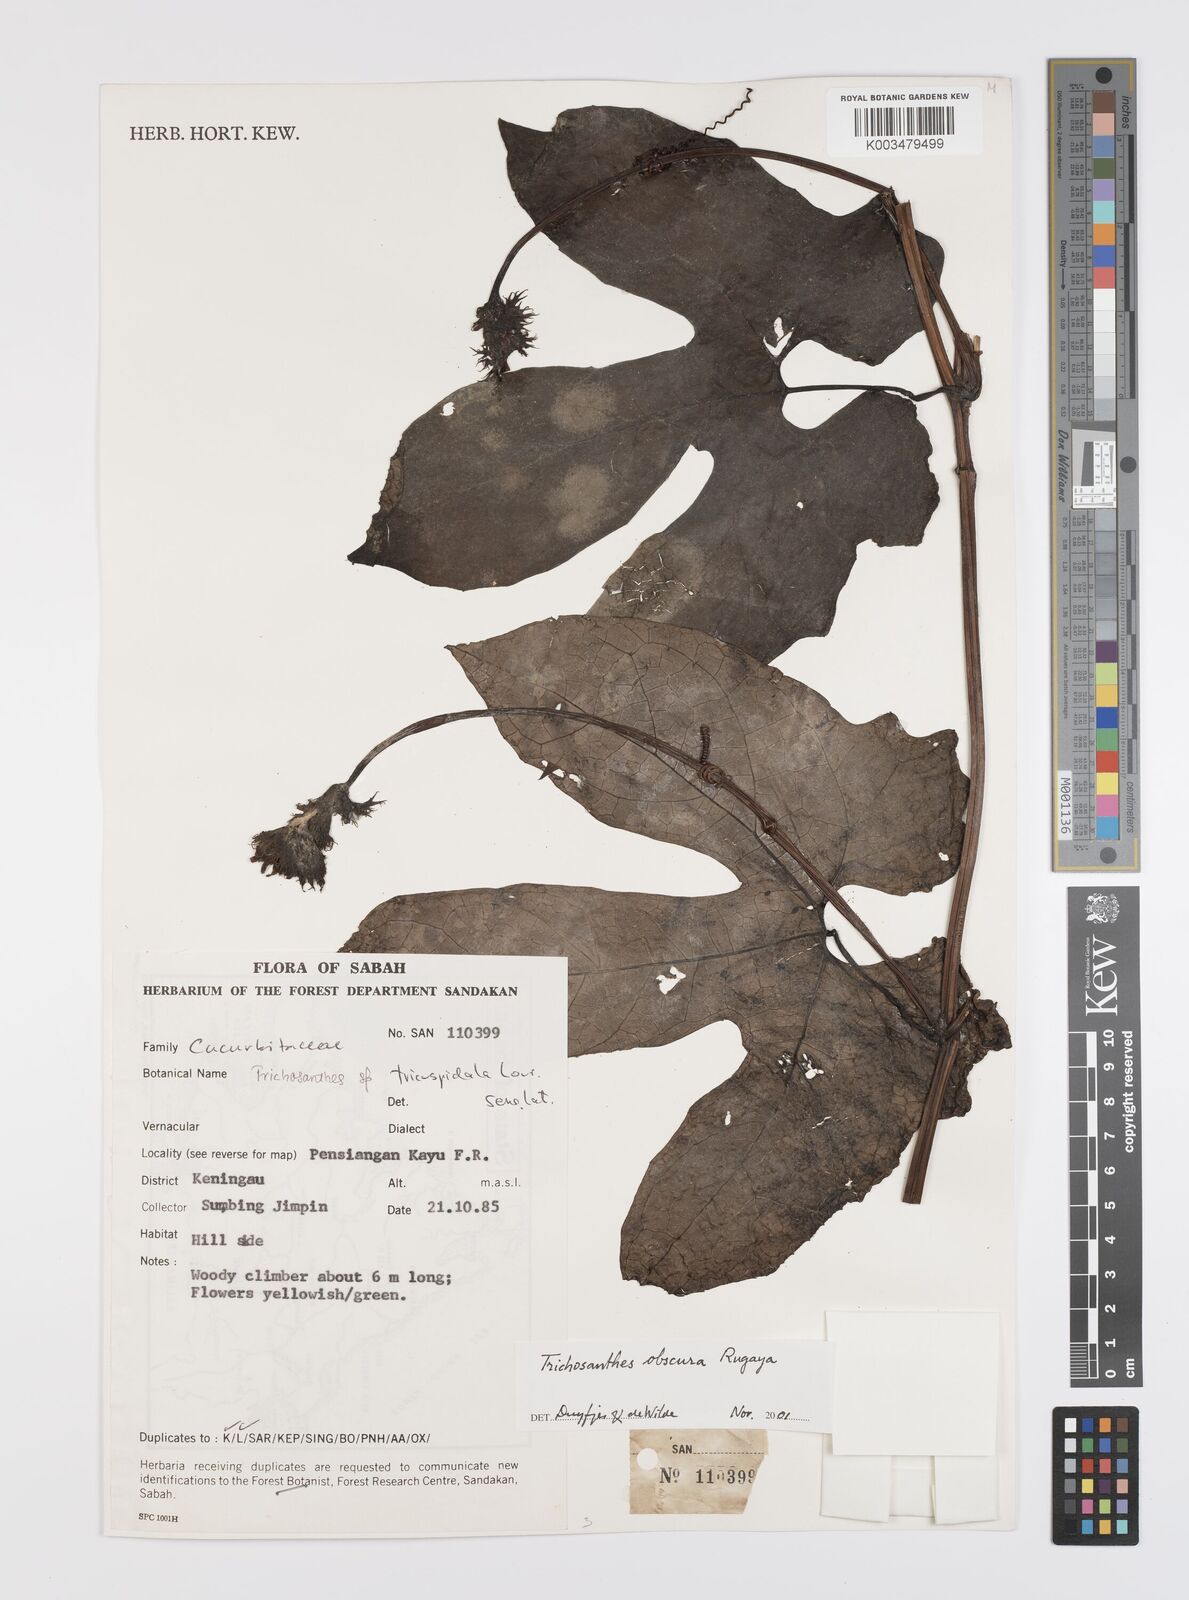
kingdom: Plantae
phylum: Tracheophyta
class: Magnoliopsida
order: Cucurbitales
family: Cucurbitaceae
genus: Trichosanthes
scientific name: Trichosanthes obscura
